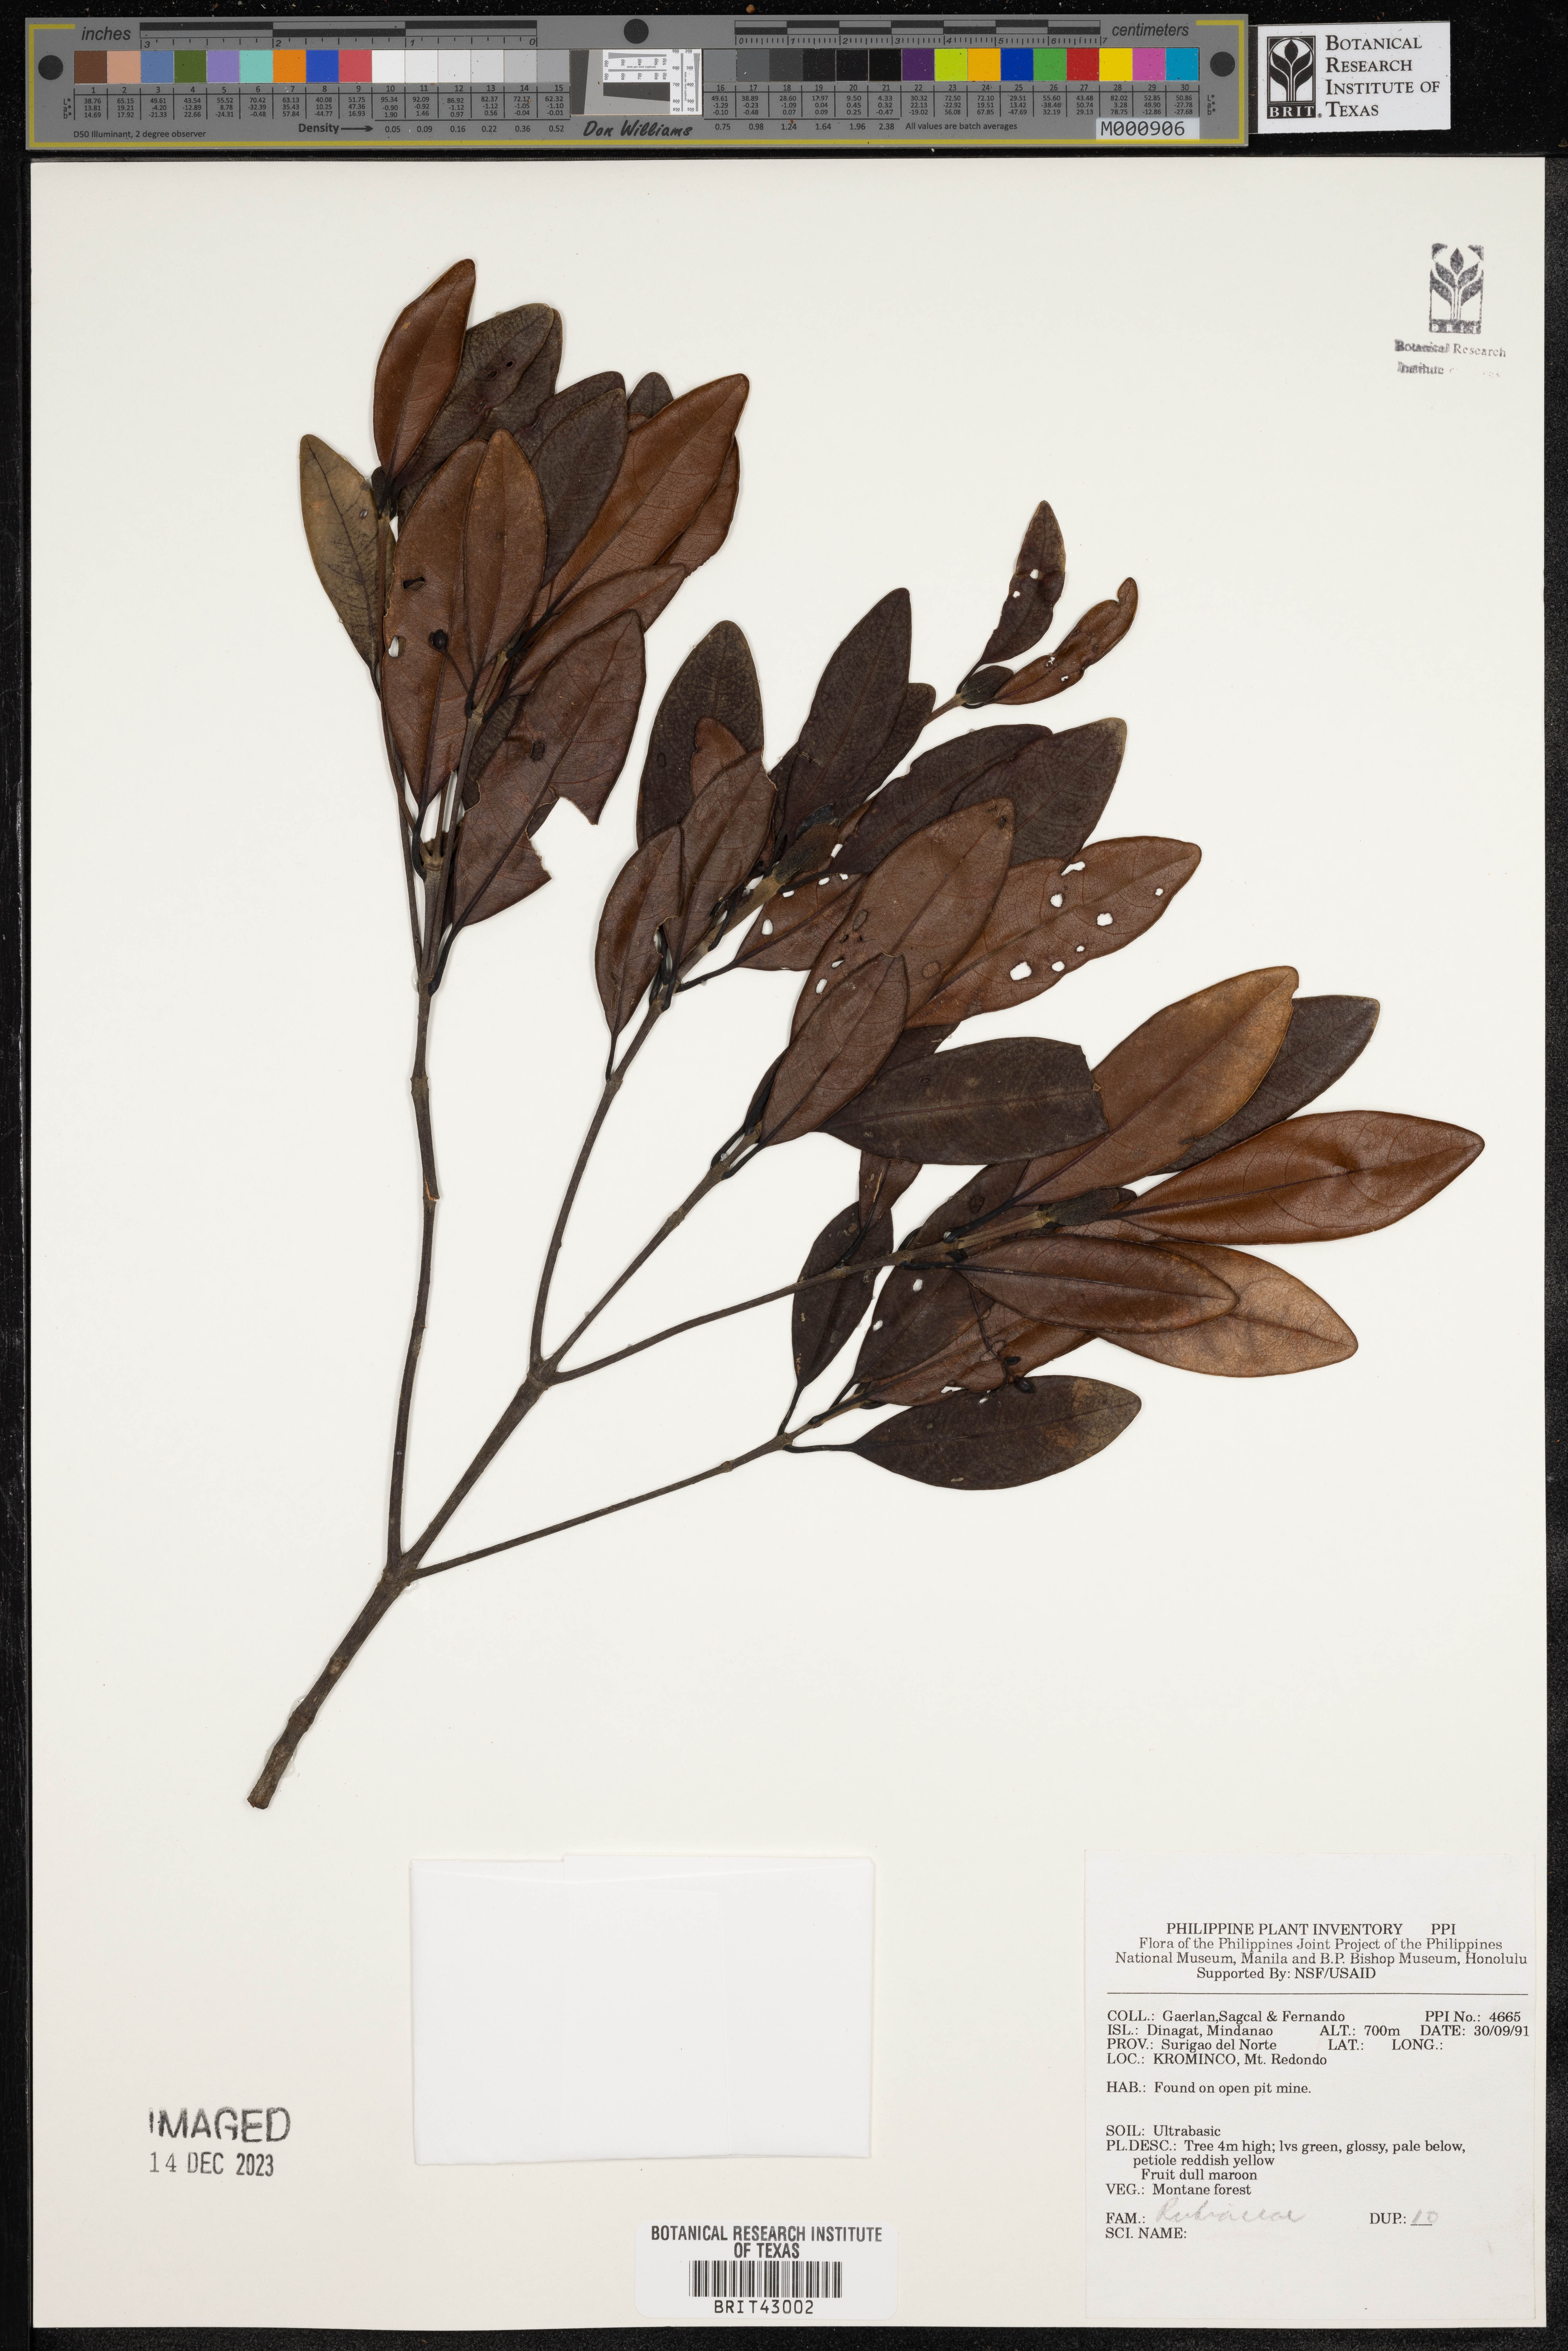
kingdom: Plantae
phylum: Tracheophyta
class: Magnoliopsida
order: Gentianales
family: Rubiaceae
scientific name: Rubiaceae
